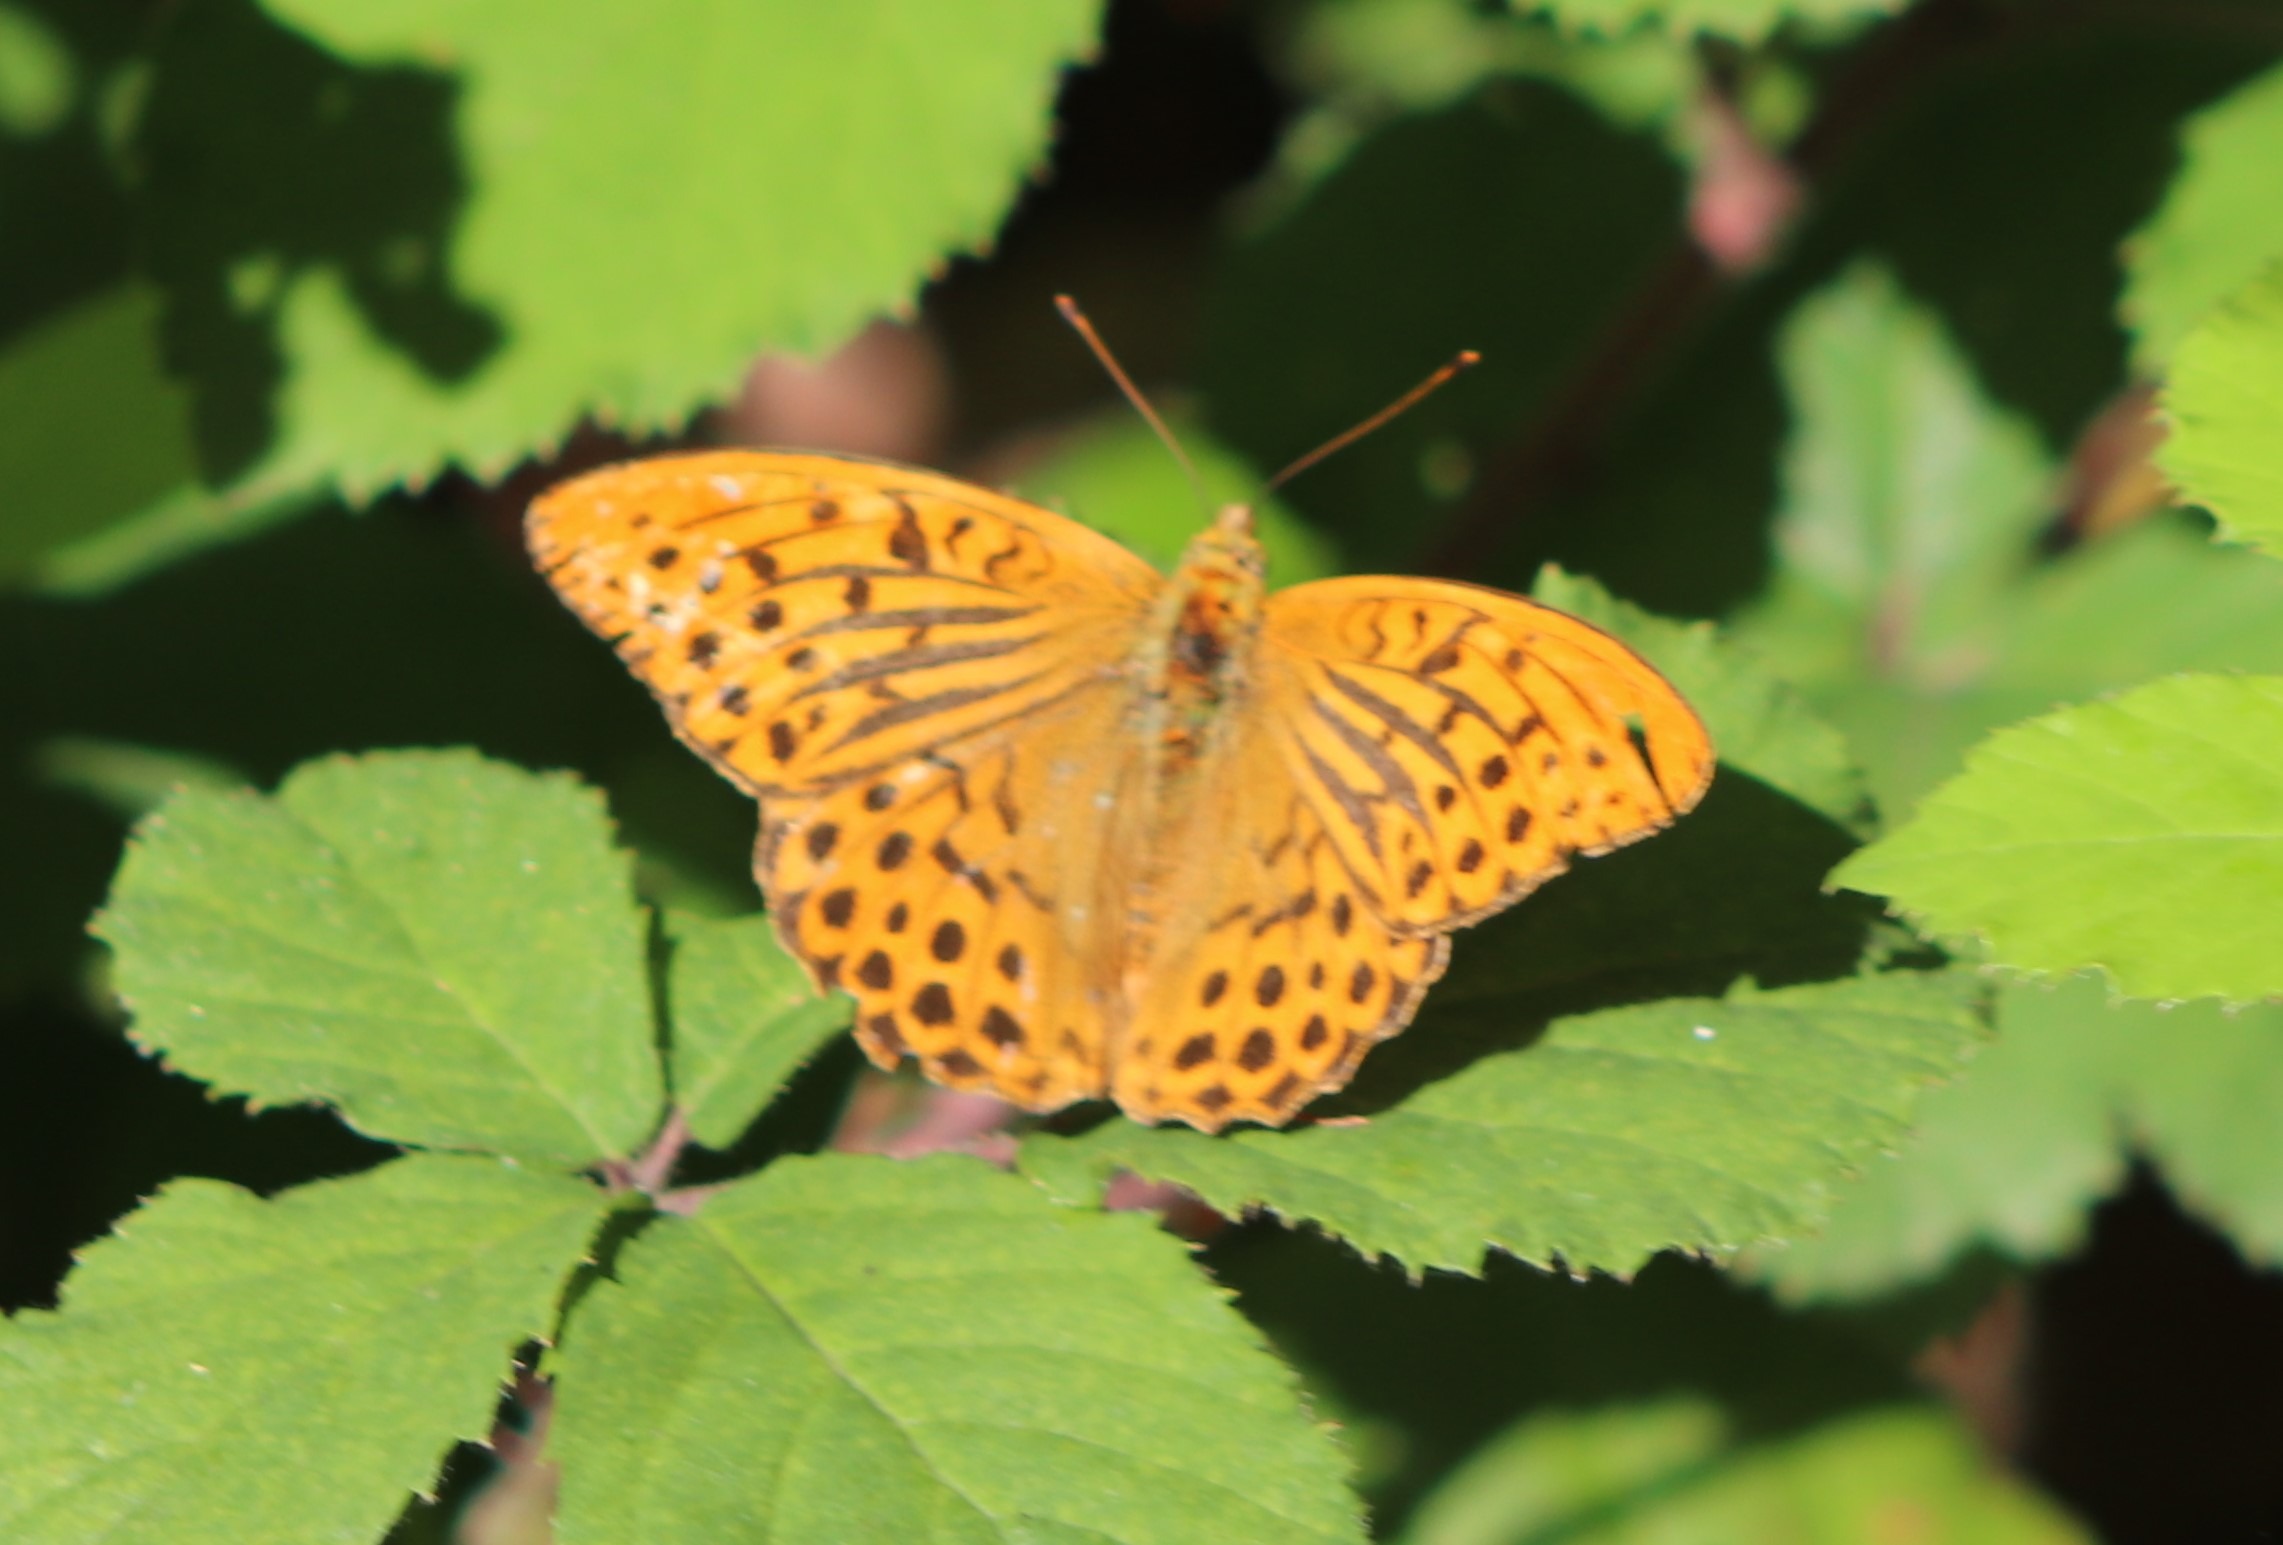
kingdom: Animalia
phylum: Arthropoda
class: Insecta
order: Lepidoptera
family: Nymphalidae
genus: Argynnis
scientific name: Argynnis paphia
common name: Kejserkåbe
